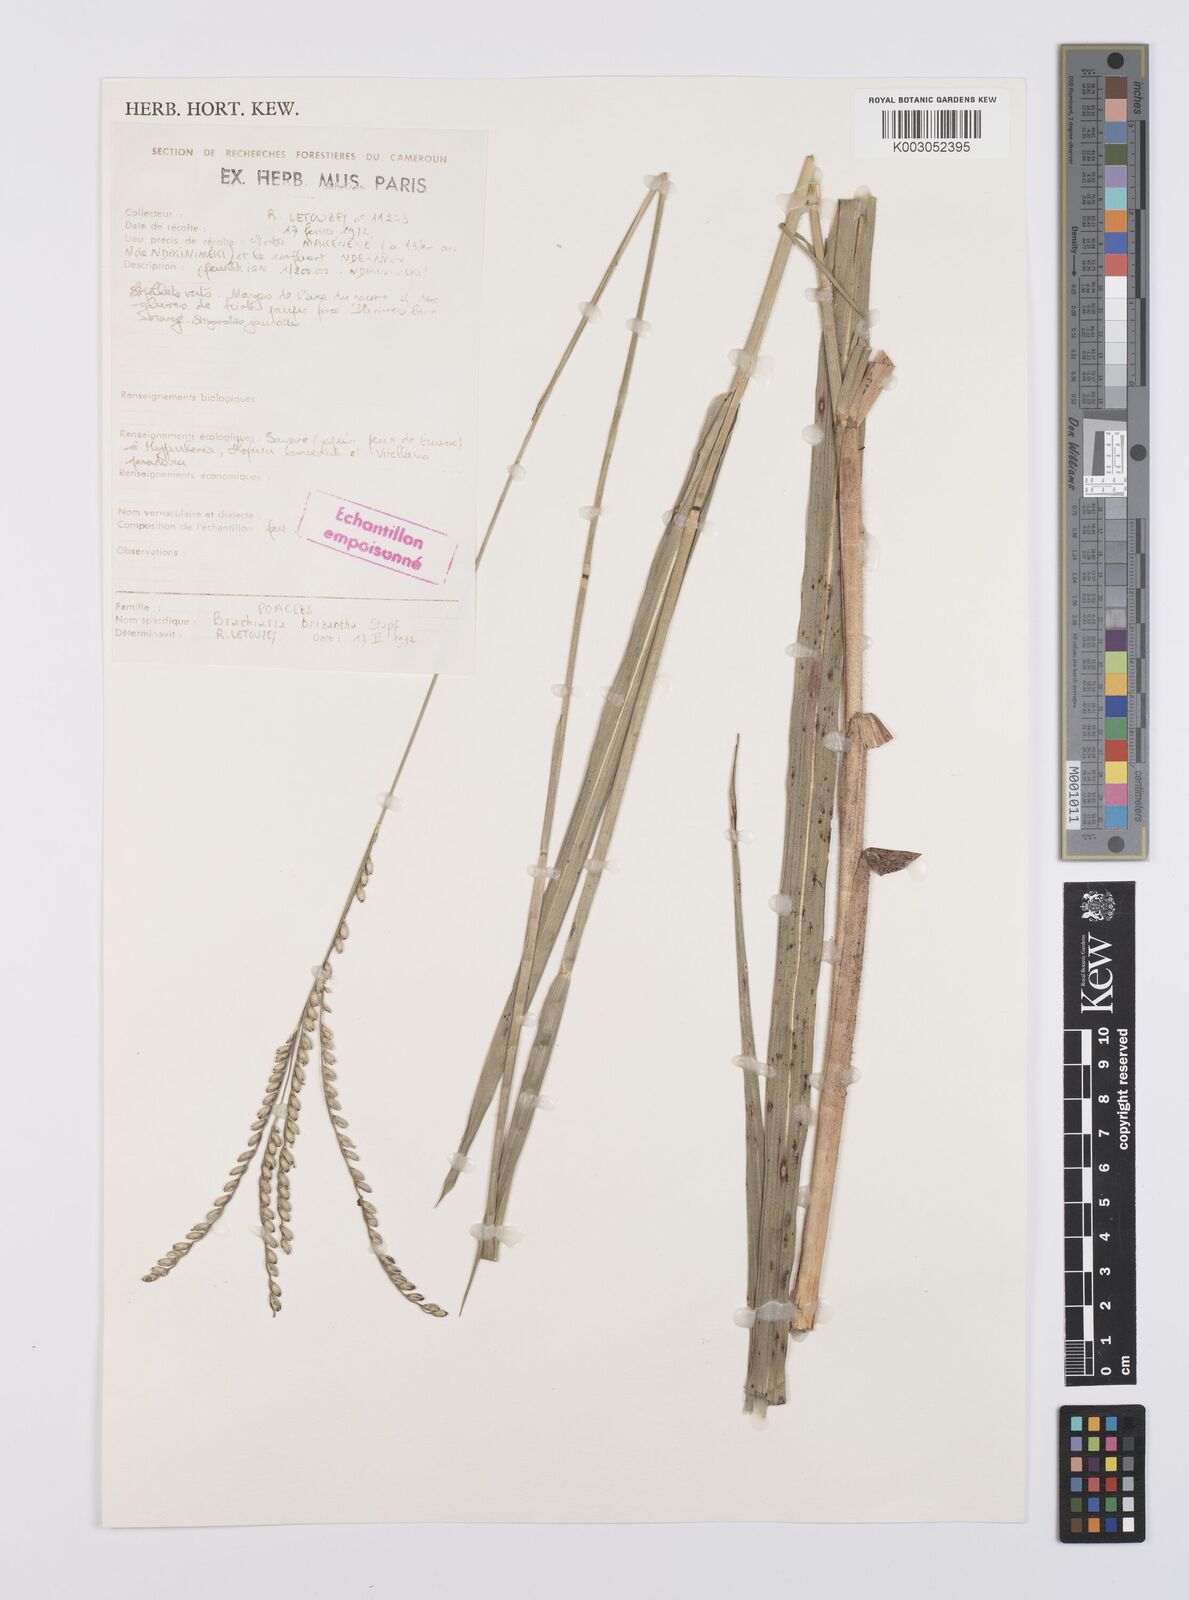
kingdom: Plantae
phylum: Tracheophyta
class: Liliopsida
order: Poales
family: Poaceae
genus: Urochloa
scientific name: Urochloa brizantha
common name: Palisade signalgrass
